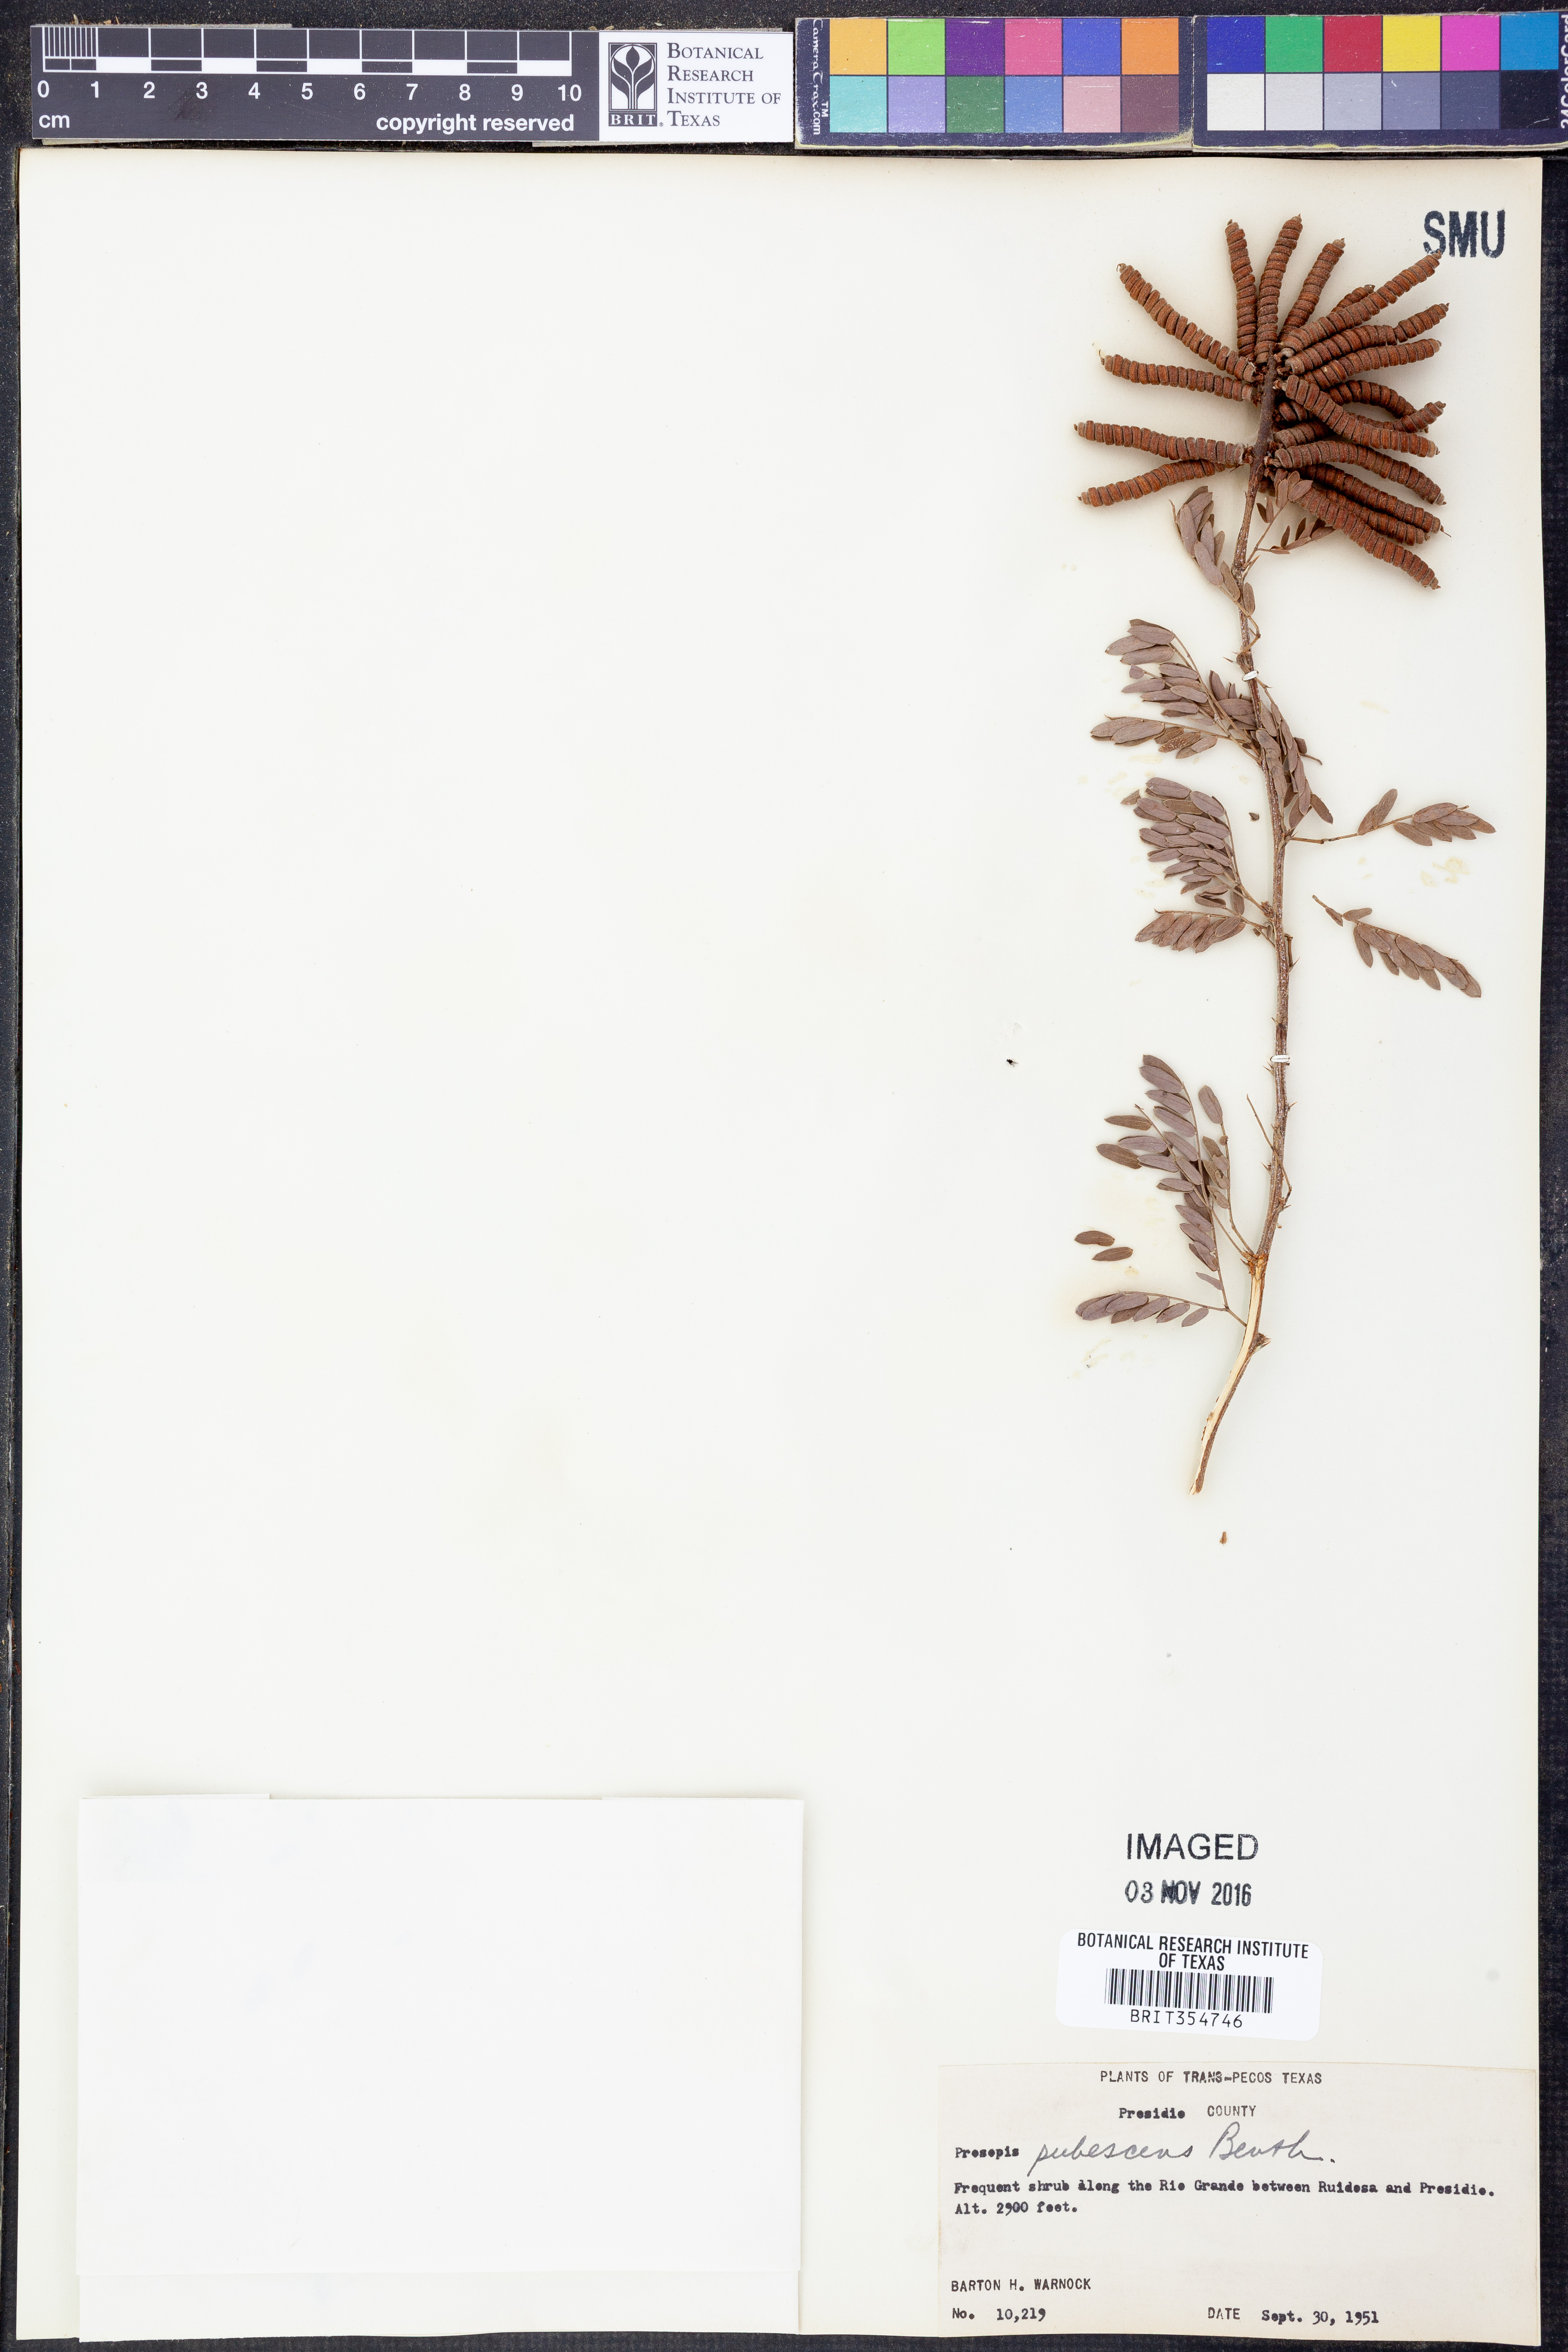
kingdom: Plantae
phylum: Tracheophyta
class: Magnoliopsida
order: Fabales
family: Fabaceae
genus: Prosopis
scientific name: Prosopis pubescens
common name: Screw-bean
